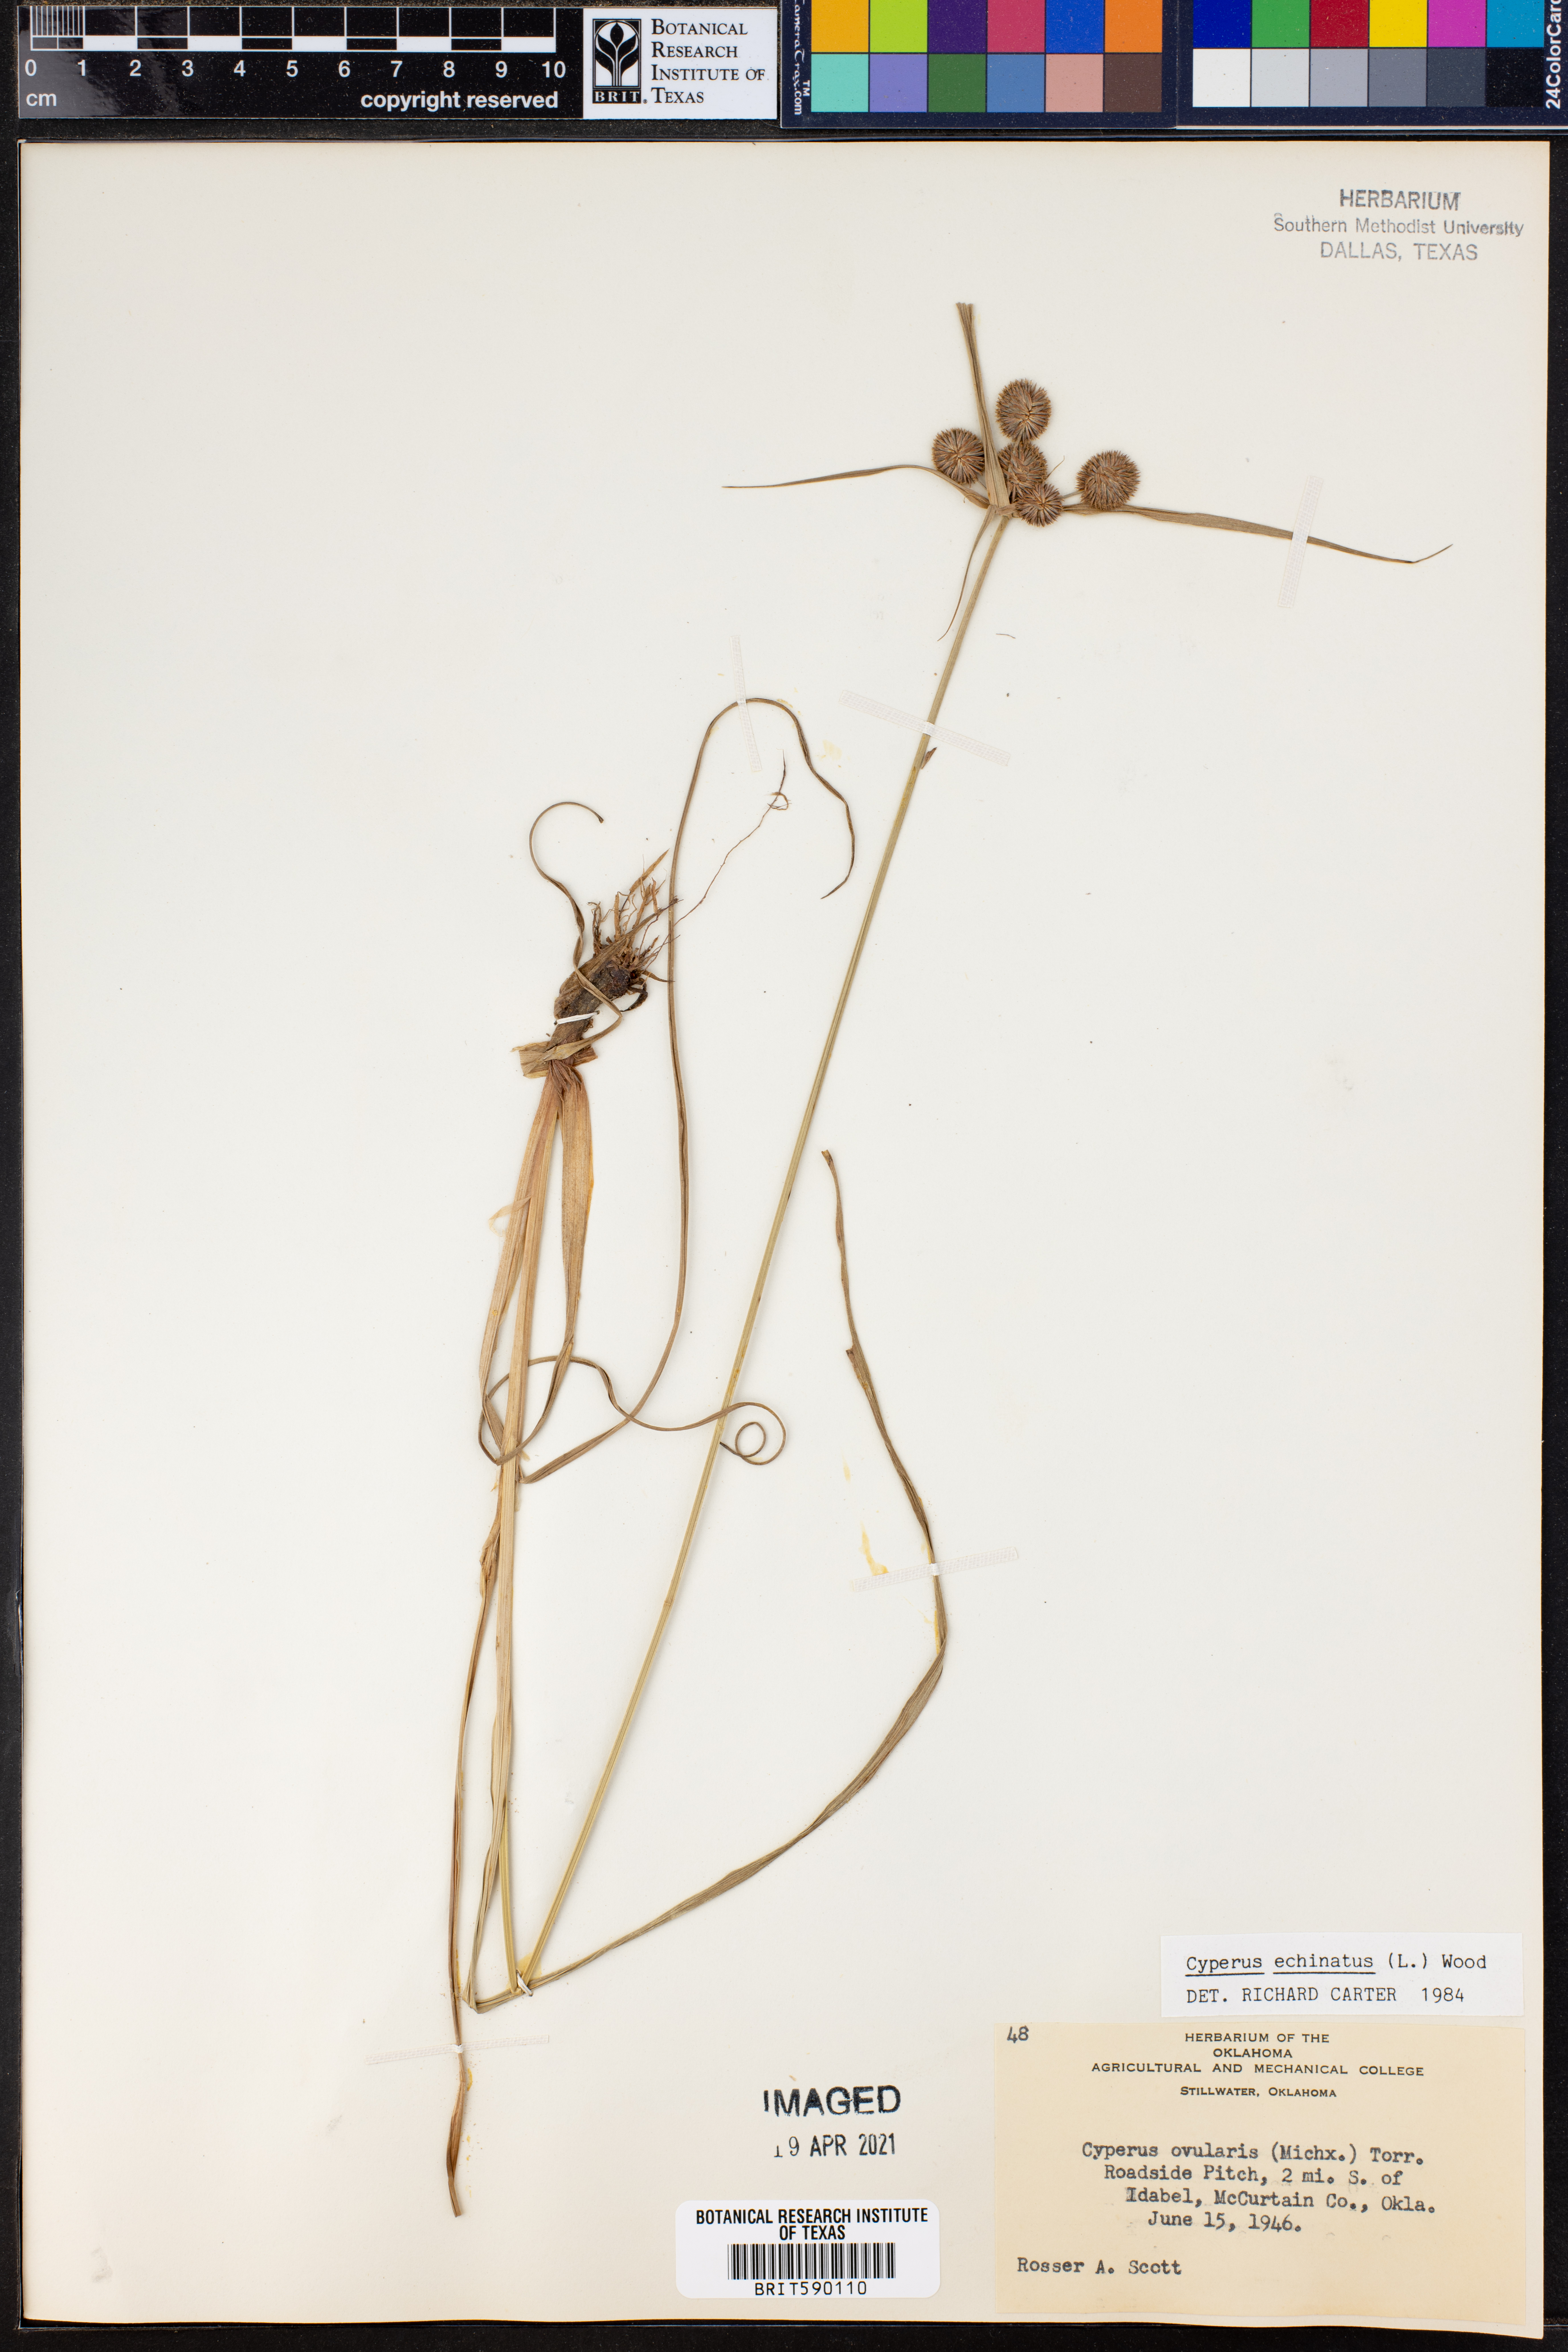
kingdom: Plantae
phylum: Tracheophyta
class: Liliopsida
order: Poales
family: Cyperaceae
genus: Cyperus
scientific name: Cyperus echinatus
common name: Teasel sedge
